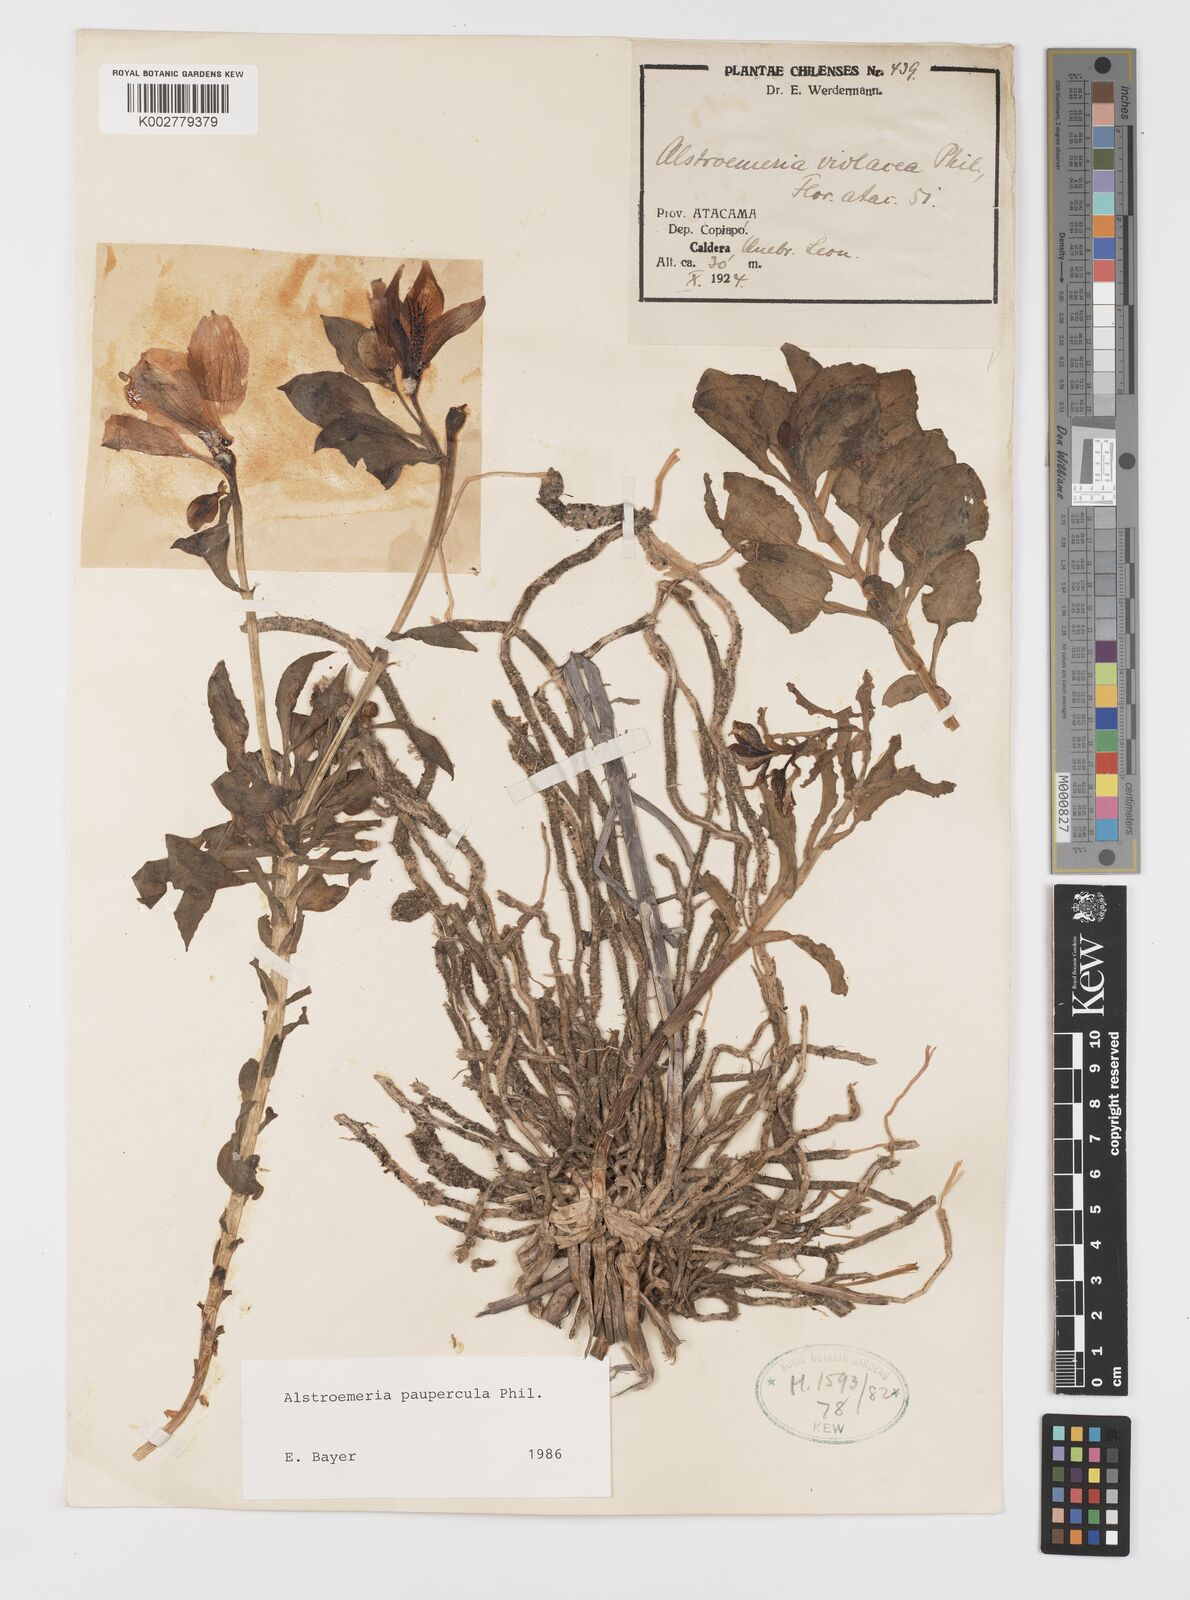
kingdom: Plantae
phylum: Tracheophyta
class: Liliopsida
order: Liliales
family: Alstroemeriaceae
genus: Alstroemeria
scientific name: Alstroemeria paupercula
